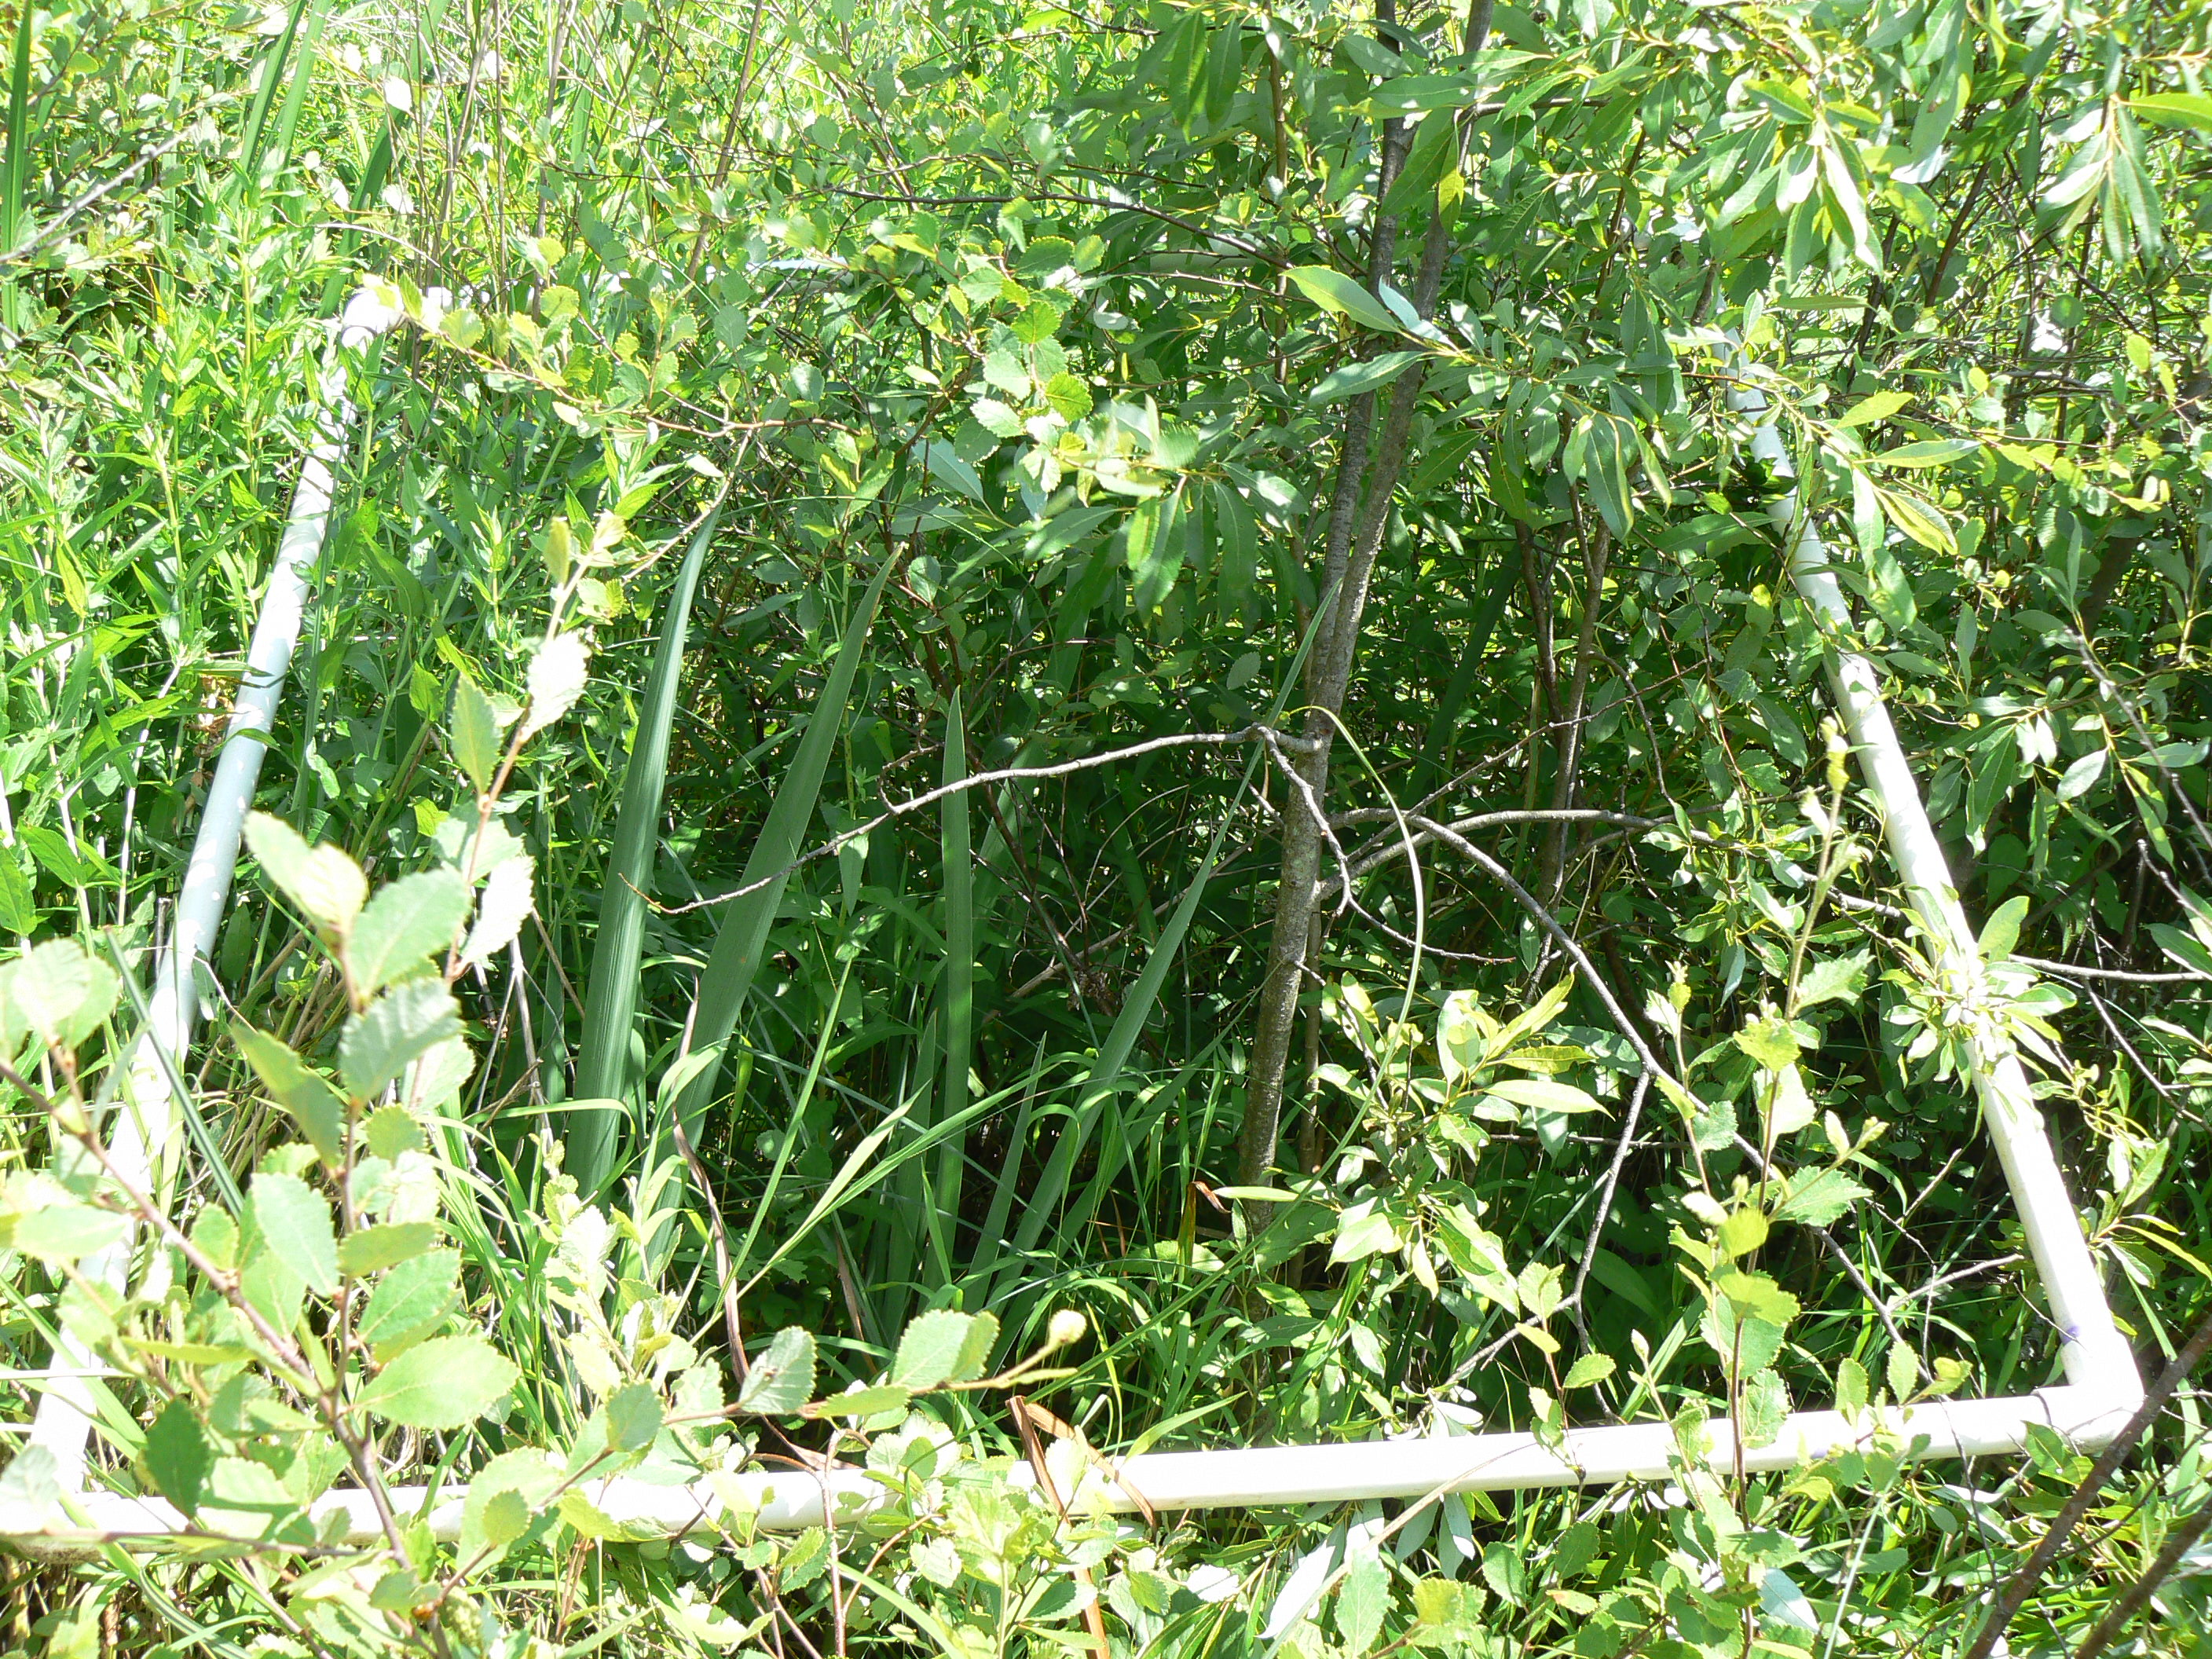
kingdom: Plantae
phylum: Tracheophyta
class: Magnoliopsida
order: Fagales
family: Betulaceae
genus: Betula
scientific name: Betula pumila
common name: Bog birch
